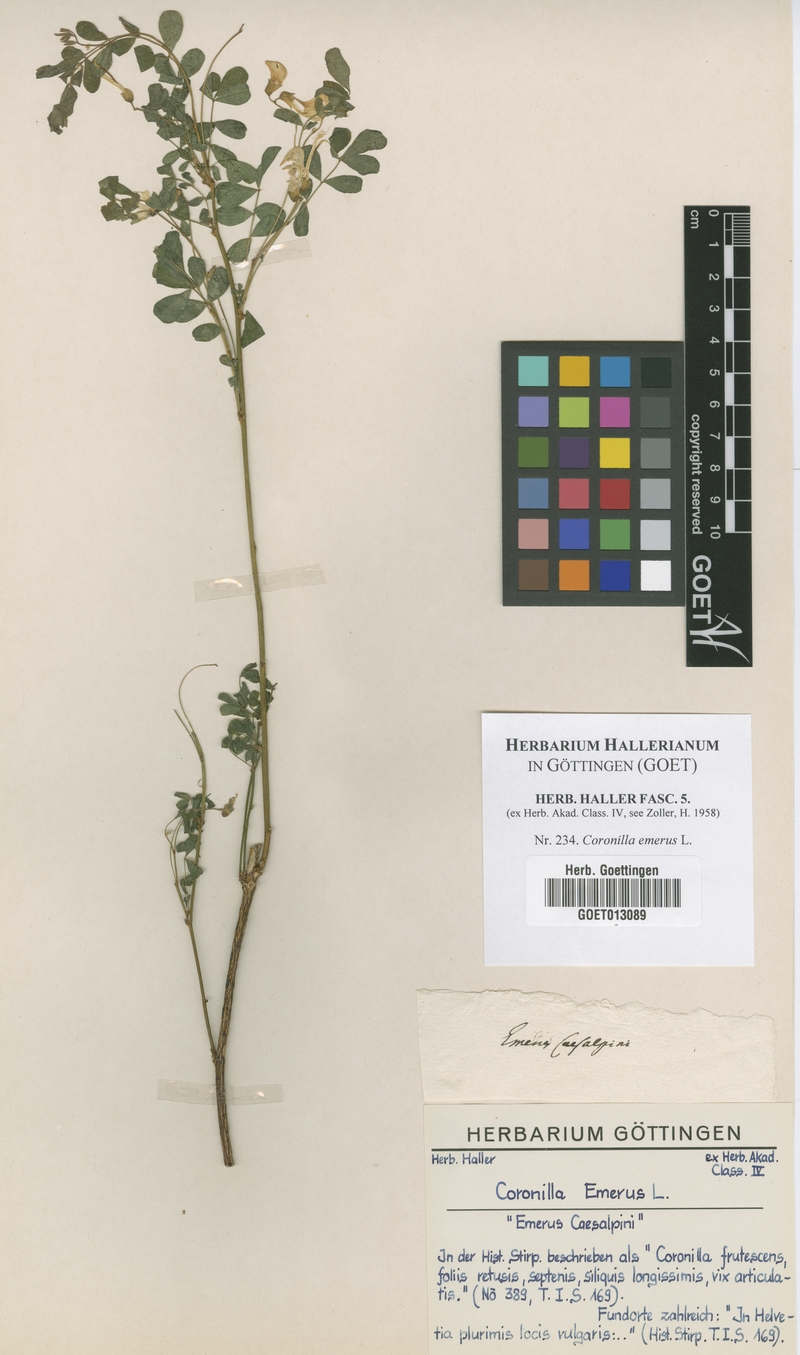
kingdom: Plantae
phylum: Tracheophyta
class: Magnoliopsida
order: Fabales
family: Fabaceae
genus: Hippocrepis
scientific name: Hippocrepis emerus
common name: Scorpion senna
